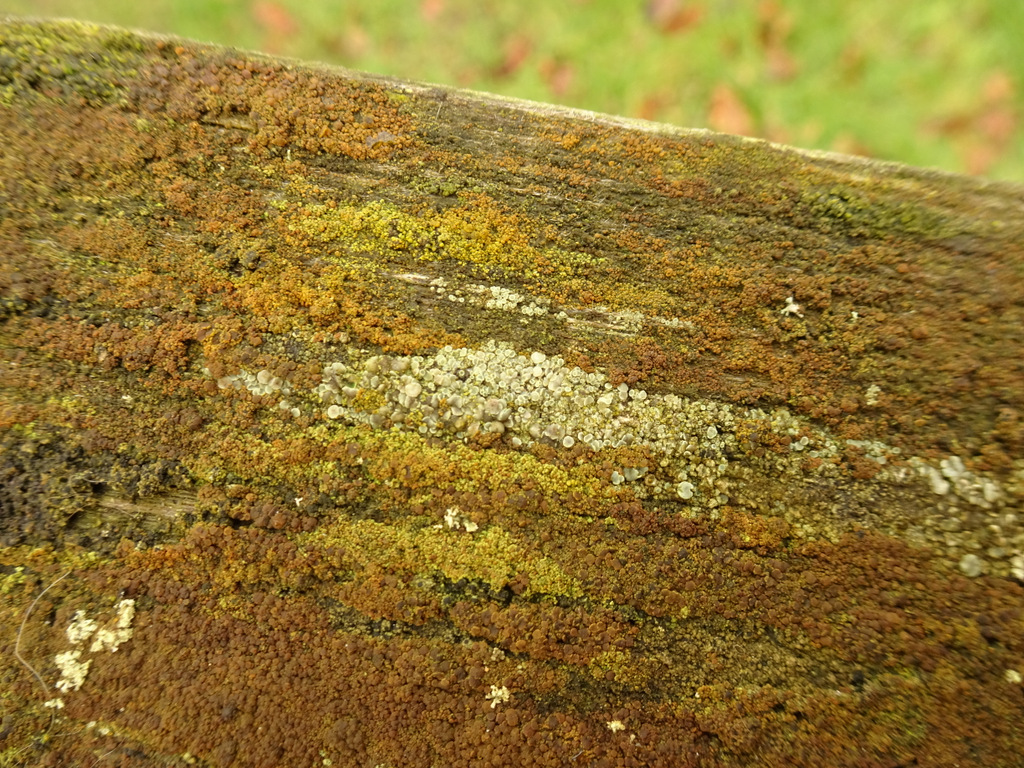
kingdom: Fungi
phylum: Ascomycota
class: Lecanoromycetes
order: Lecanorales
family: Lecanoraceae
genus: Lecanora
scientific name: Lecanora polytropa
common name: bleggrøn kantskivelav
